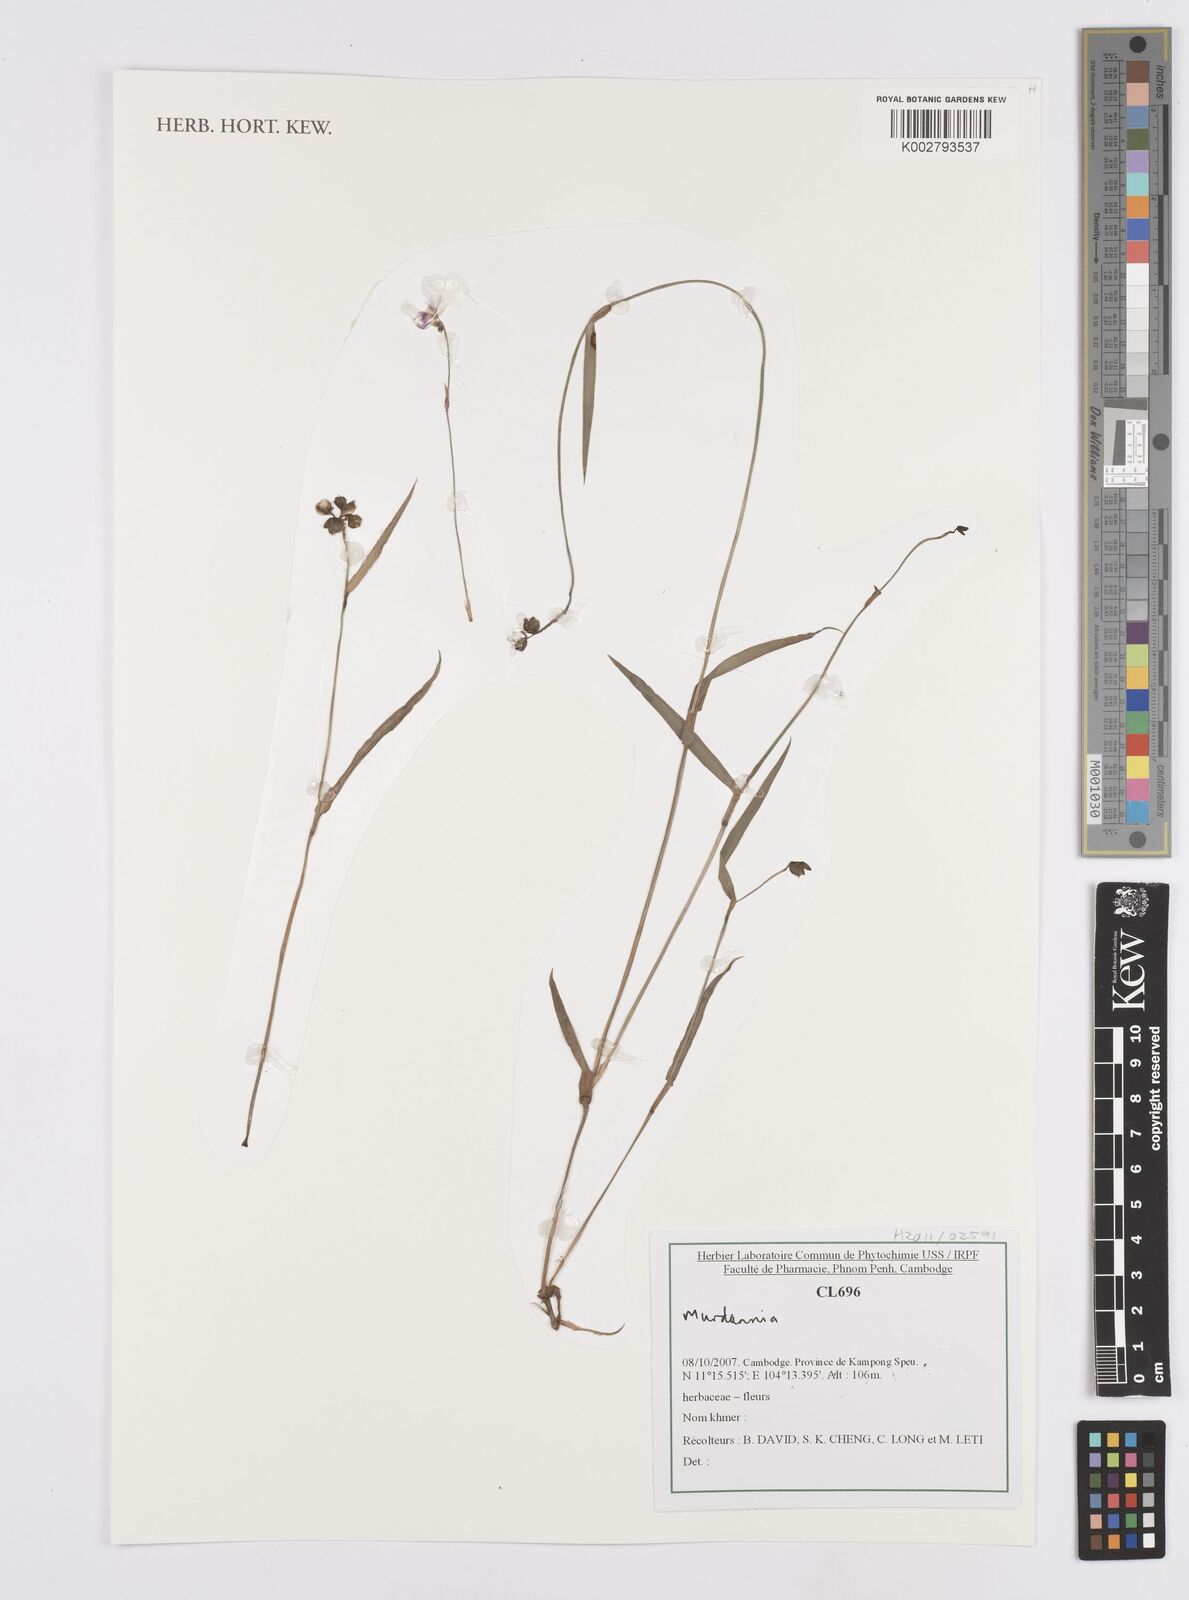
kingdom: Plantae
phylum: Tracheophyta
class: Liliopsida
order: Commelinales
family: Commelinaceae
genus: Murdannia
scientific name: Murdannia
